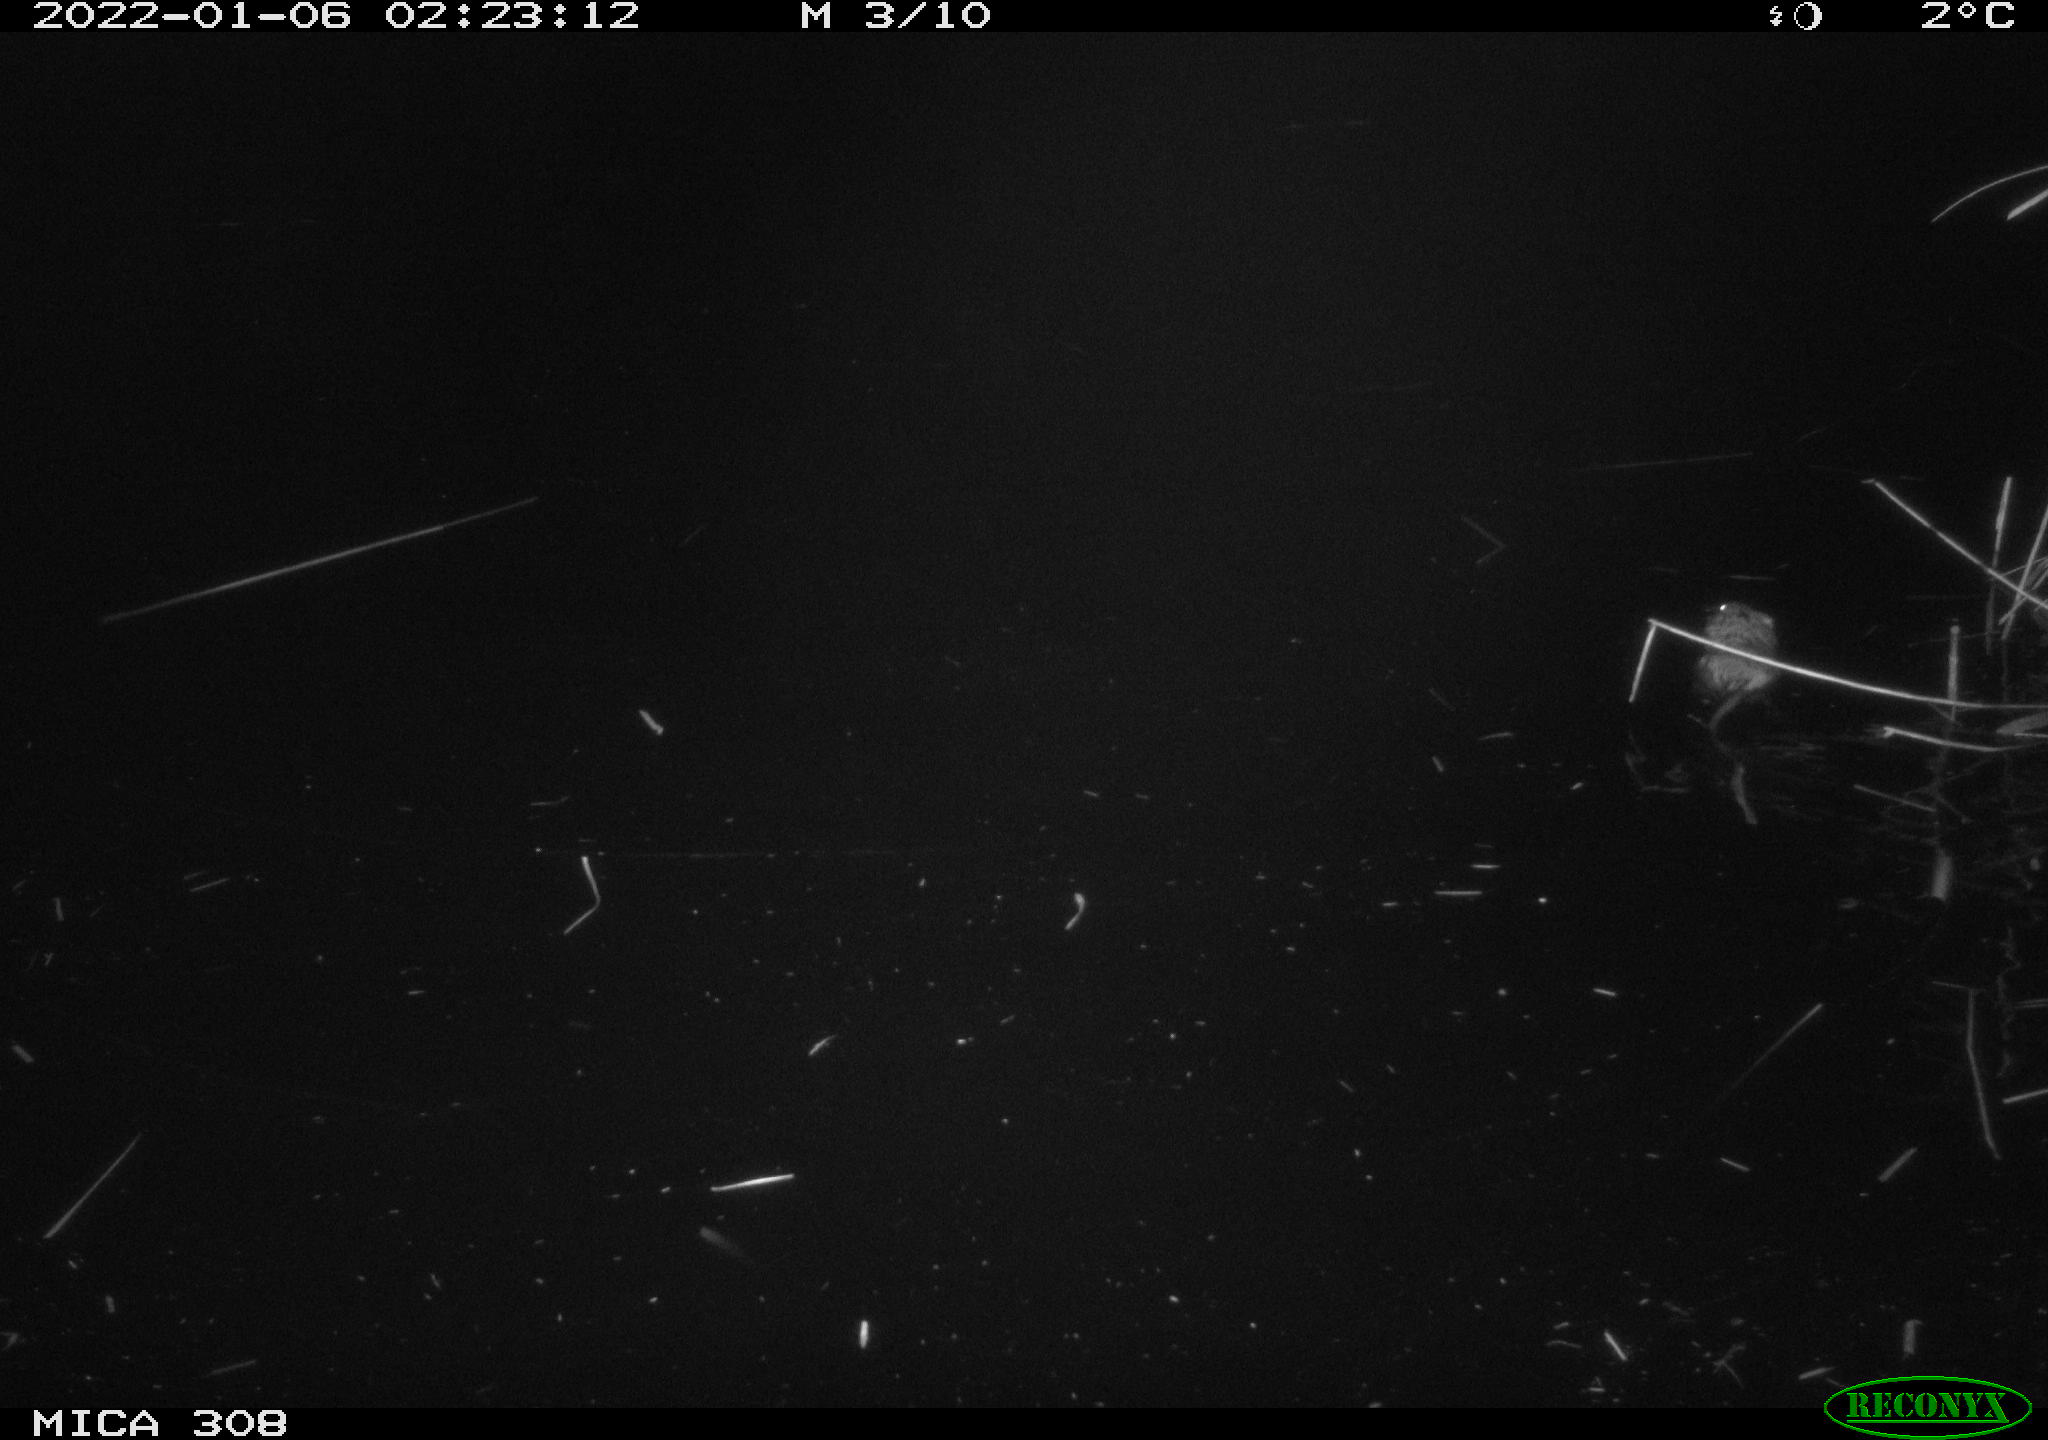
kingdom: Animalia
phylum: Chordata
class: Mammalia
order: Rodentia
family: Cricetidae
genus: Ondatra
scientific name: Ondatra zibethicus
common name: Muskrat
